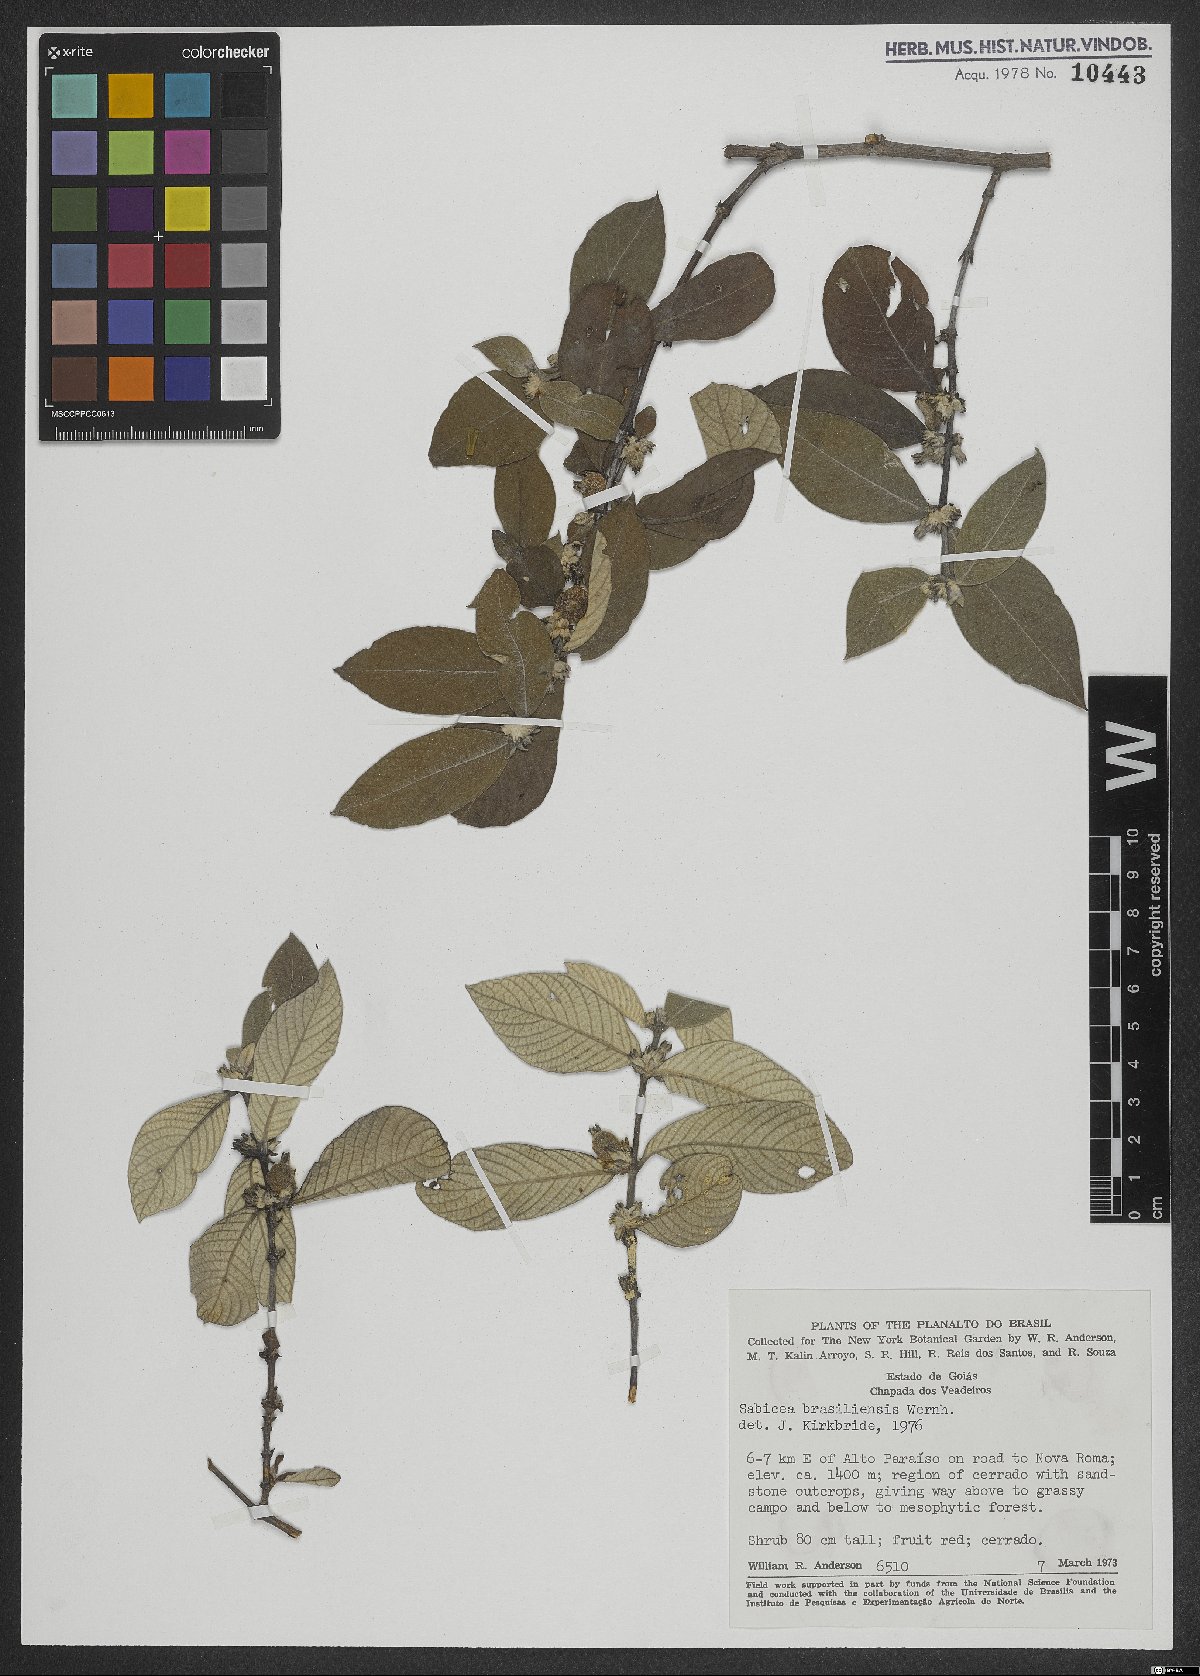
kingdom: Plantae
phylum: Tracheophyta
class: Magnoliopsida
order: Gentianales
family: Rubiaceae
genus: Sabicea
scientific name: Sabicea brasiliensis
